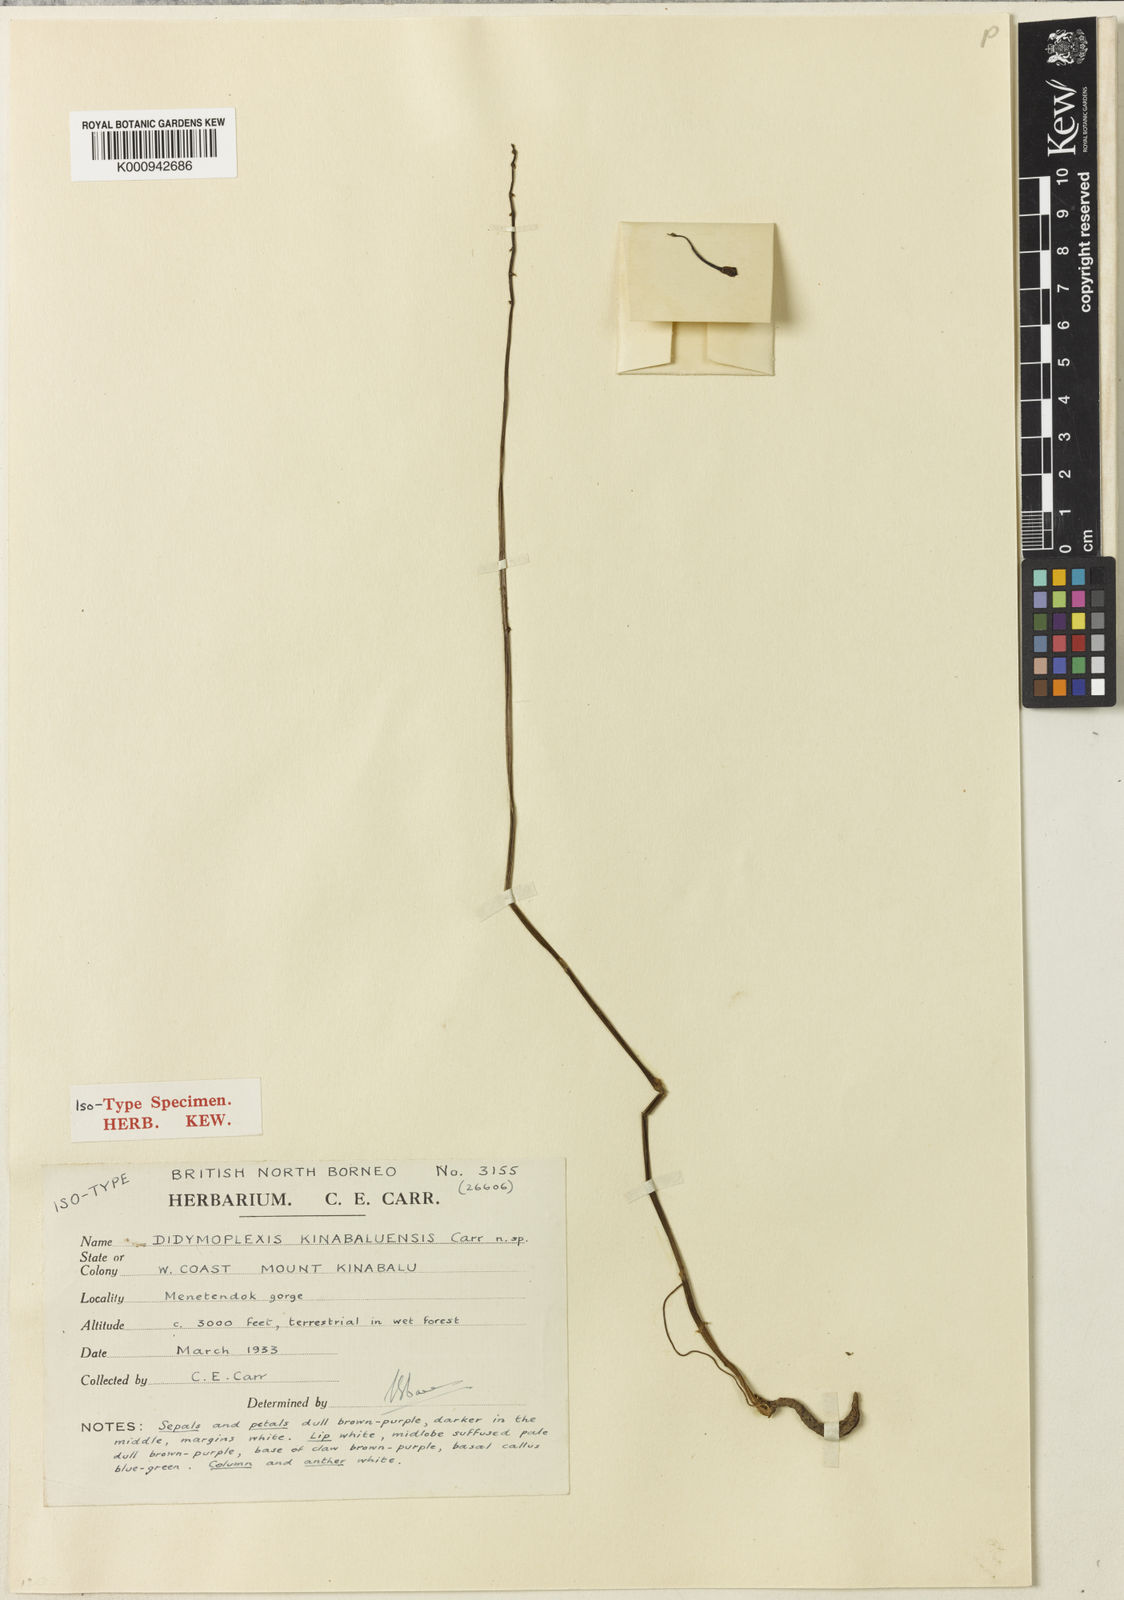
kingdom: Plantae
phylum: Tracheophyta
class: Liliopsida
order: Asparagales
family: Orchidaceae
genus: Didymoplexiella
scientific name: Didymoplexiella kinabaluensis
